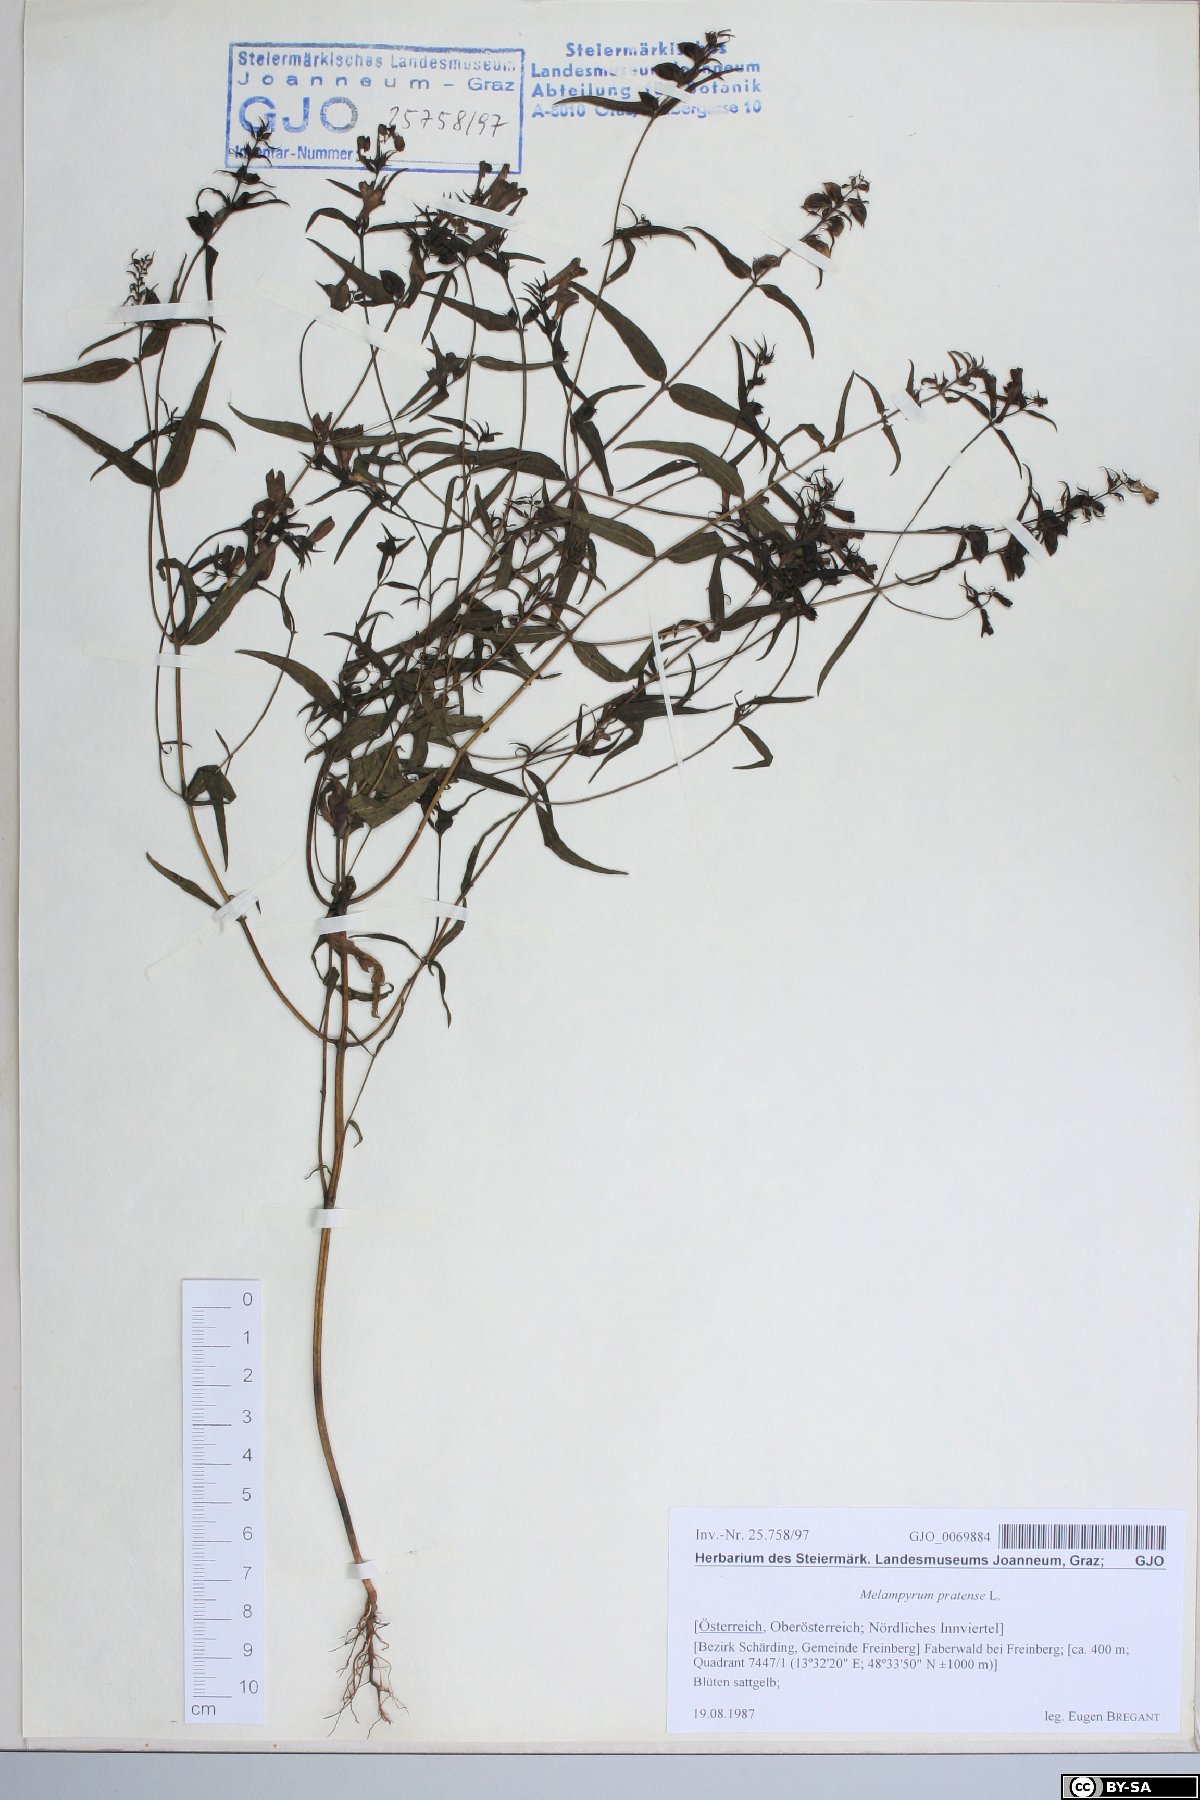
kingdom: Plantae
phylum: Tracheophyta
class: Magnoliopsida
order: Lamiales
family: Orobanchaceae
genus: Melampyrum
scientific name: Melampyrum pratense
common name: Common cow-wheat
